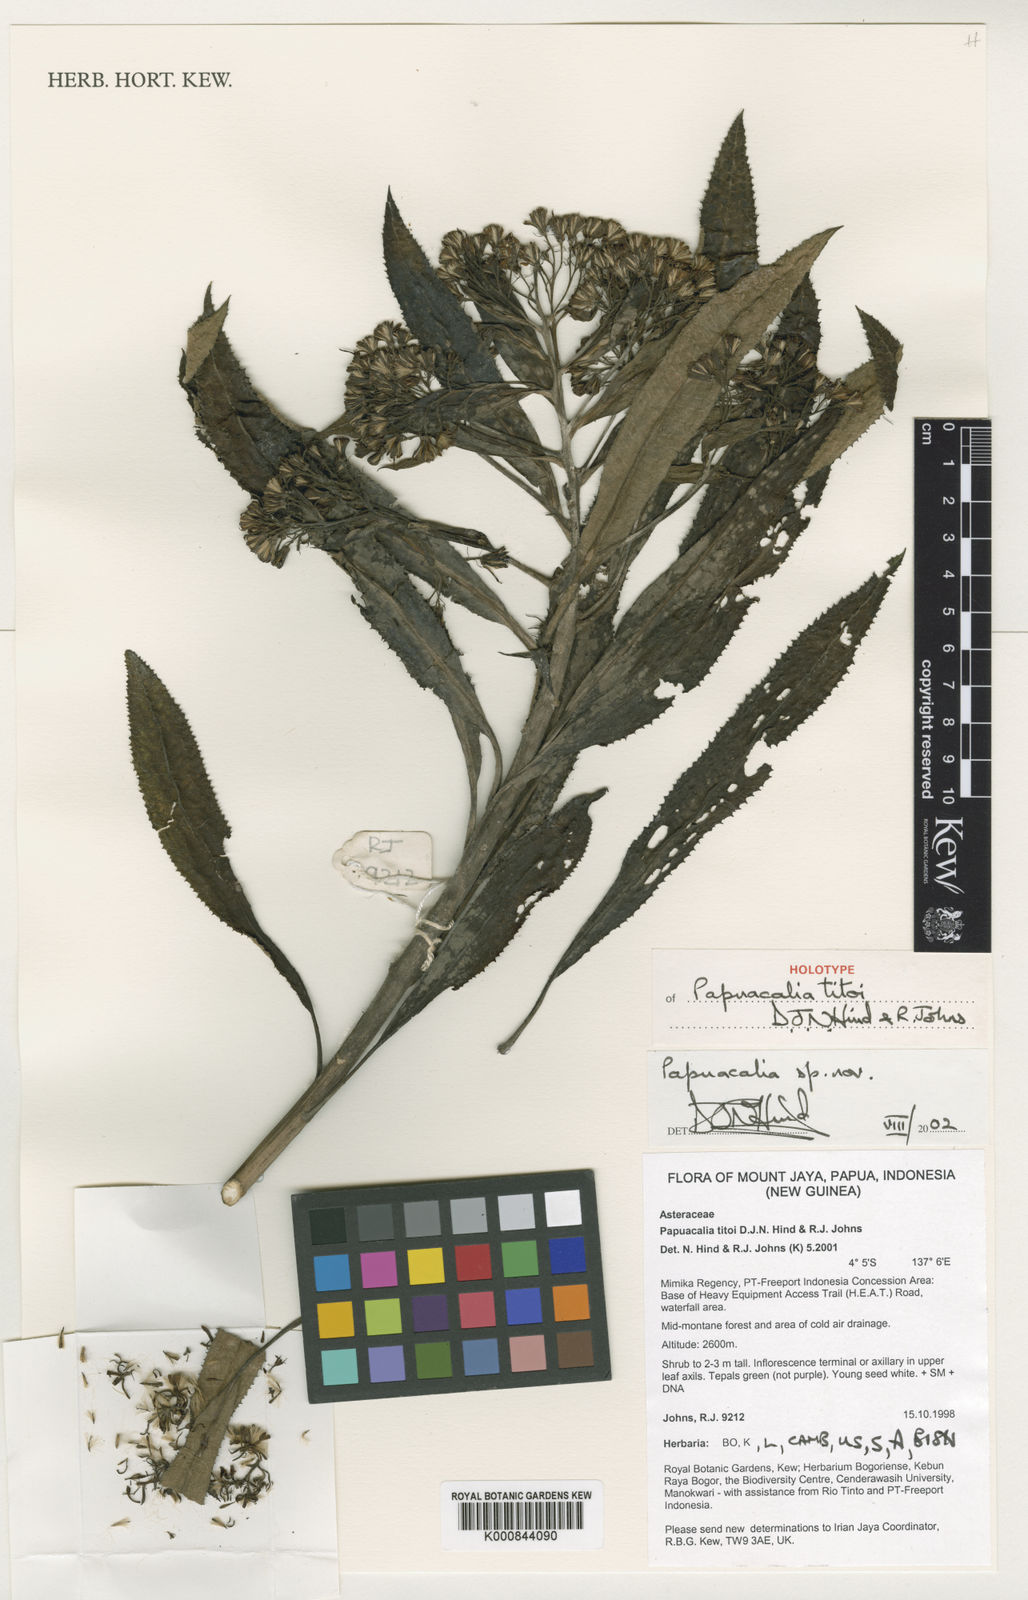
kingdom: Plantae
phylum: Tracheophyta
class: Magnoliopsida
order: Asterales
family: Asteraceae
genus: Papuacalia
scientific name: Papuacalia titoi
